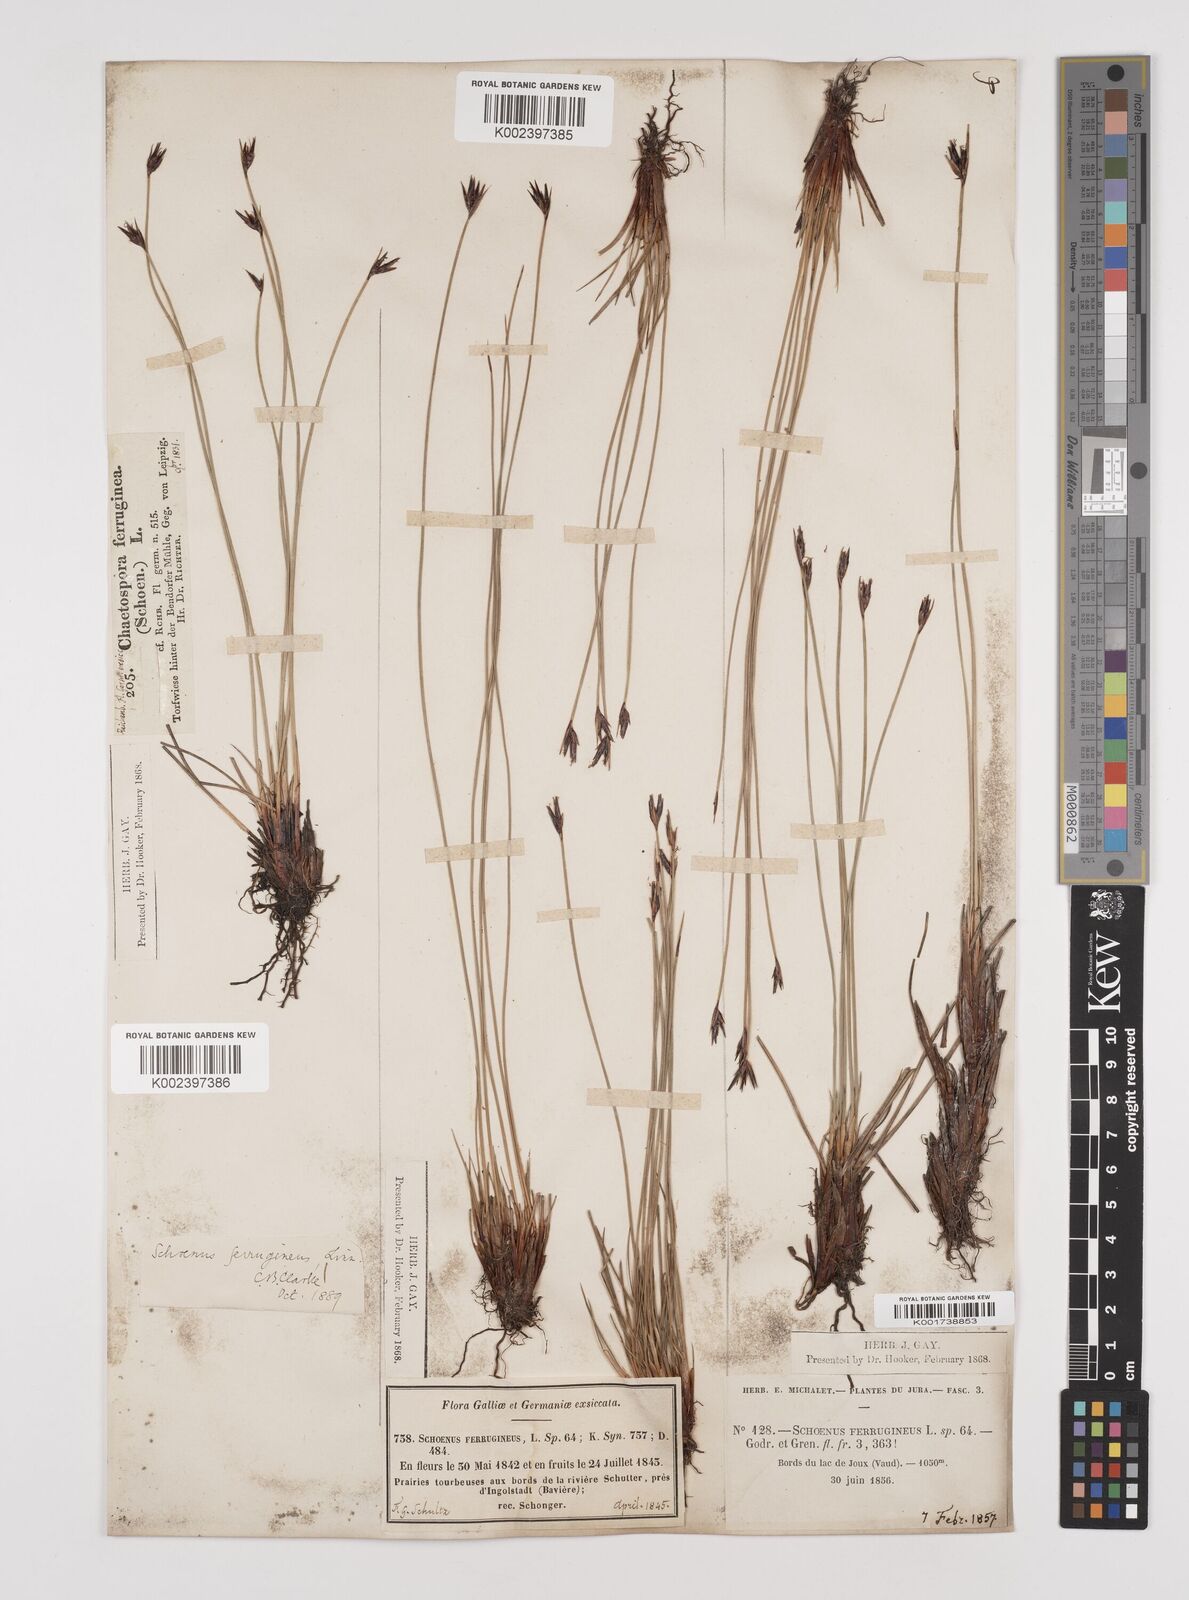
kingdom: Plantae
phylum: Tracheophyta
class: Liliopsida
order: Poales
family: Cyperaceae
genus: Schoenus
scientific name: Schoenus ferrugineus
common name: Brown bog-rush
